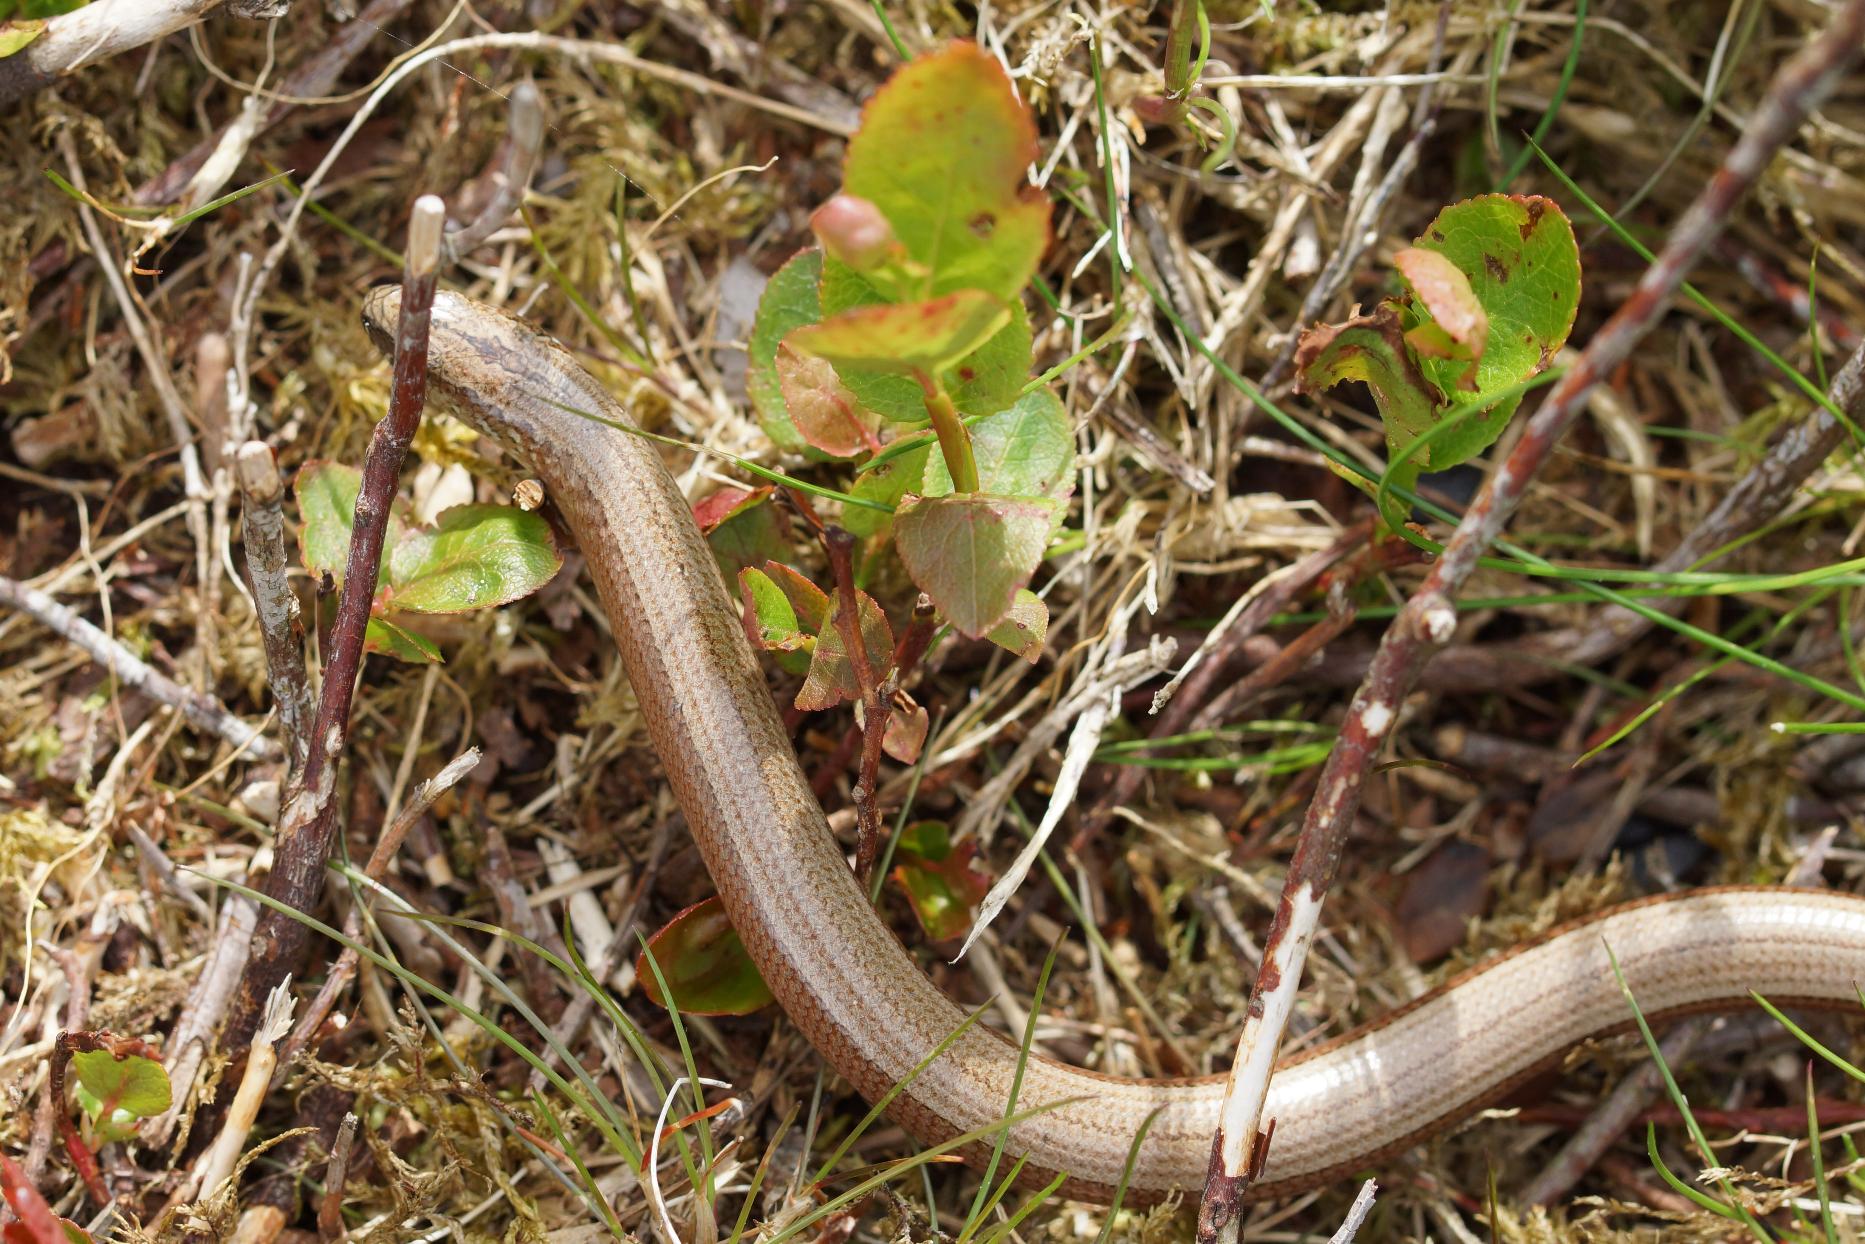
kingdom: Animalia
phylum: Chordata
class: Squamata
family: Anguidae
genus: Anguis
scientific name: Anguis fragilis
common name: Stålorm
